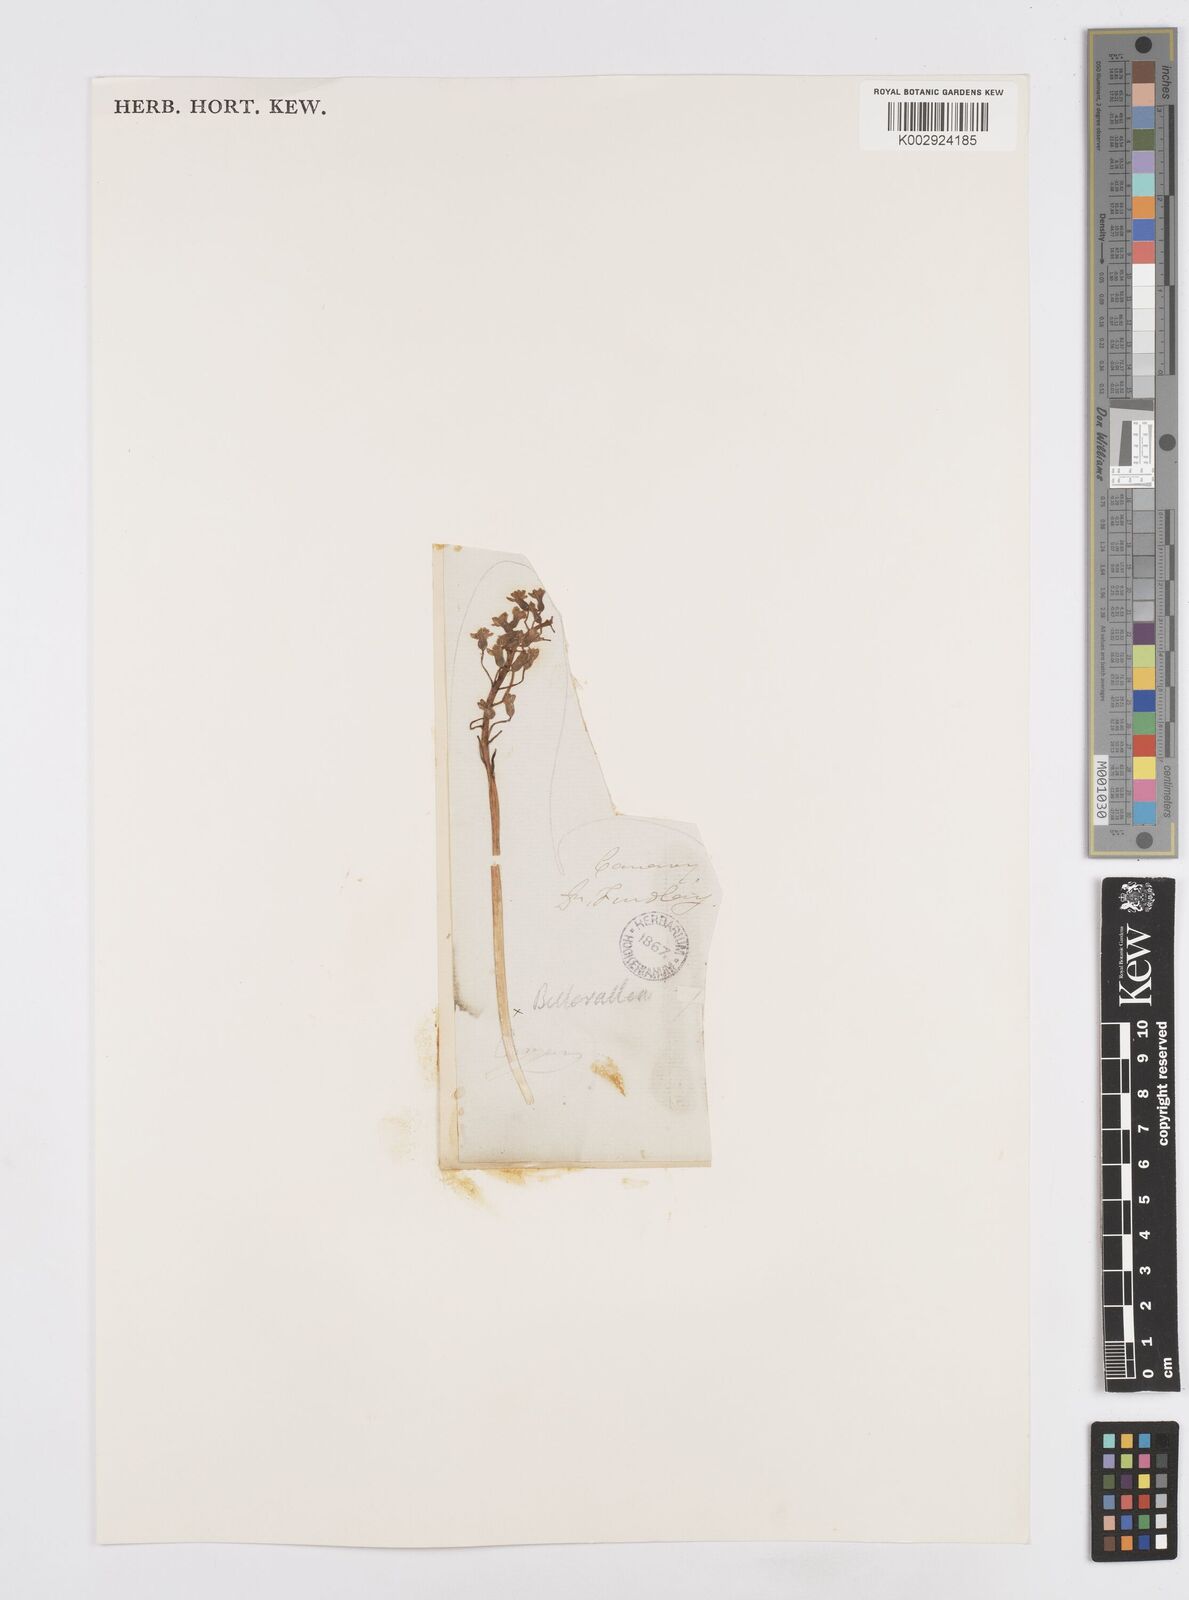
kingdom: Plantae
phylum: Tracheophyta
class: Liliopsida
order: Asparagales
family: Asparagaceae
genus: Bellevalia
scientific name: Bellevalia
